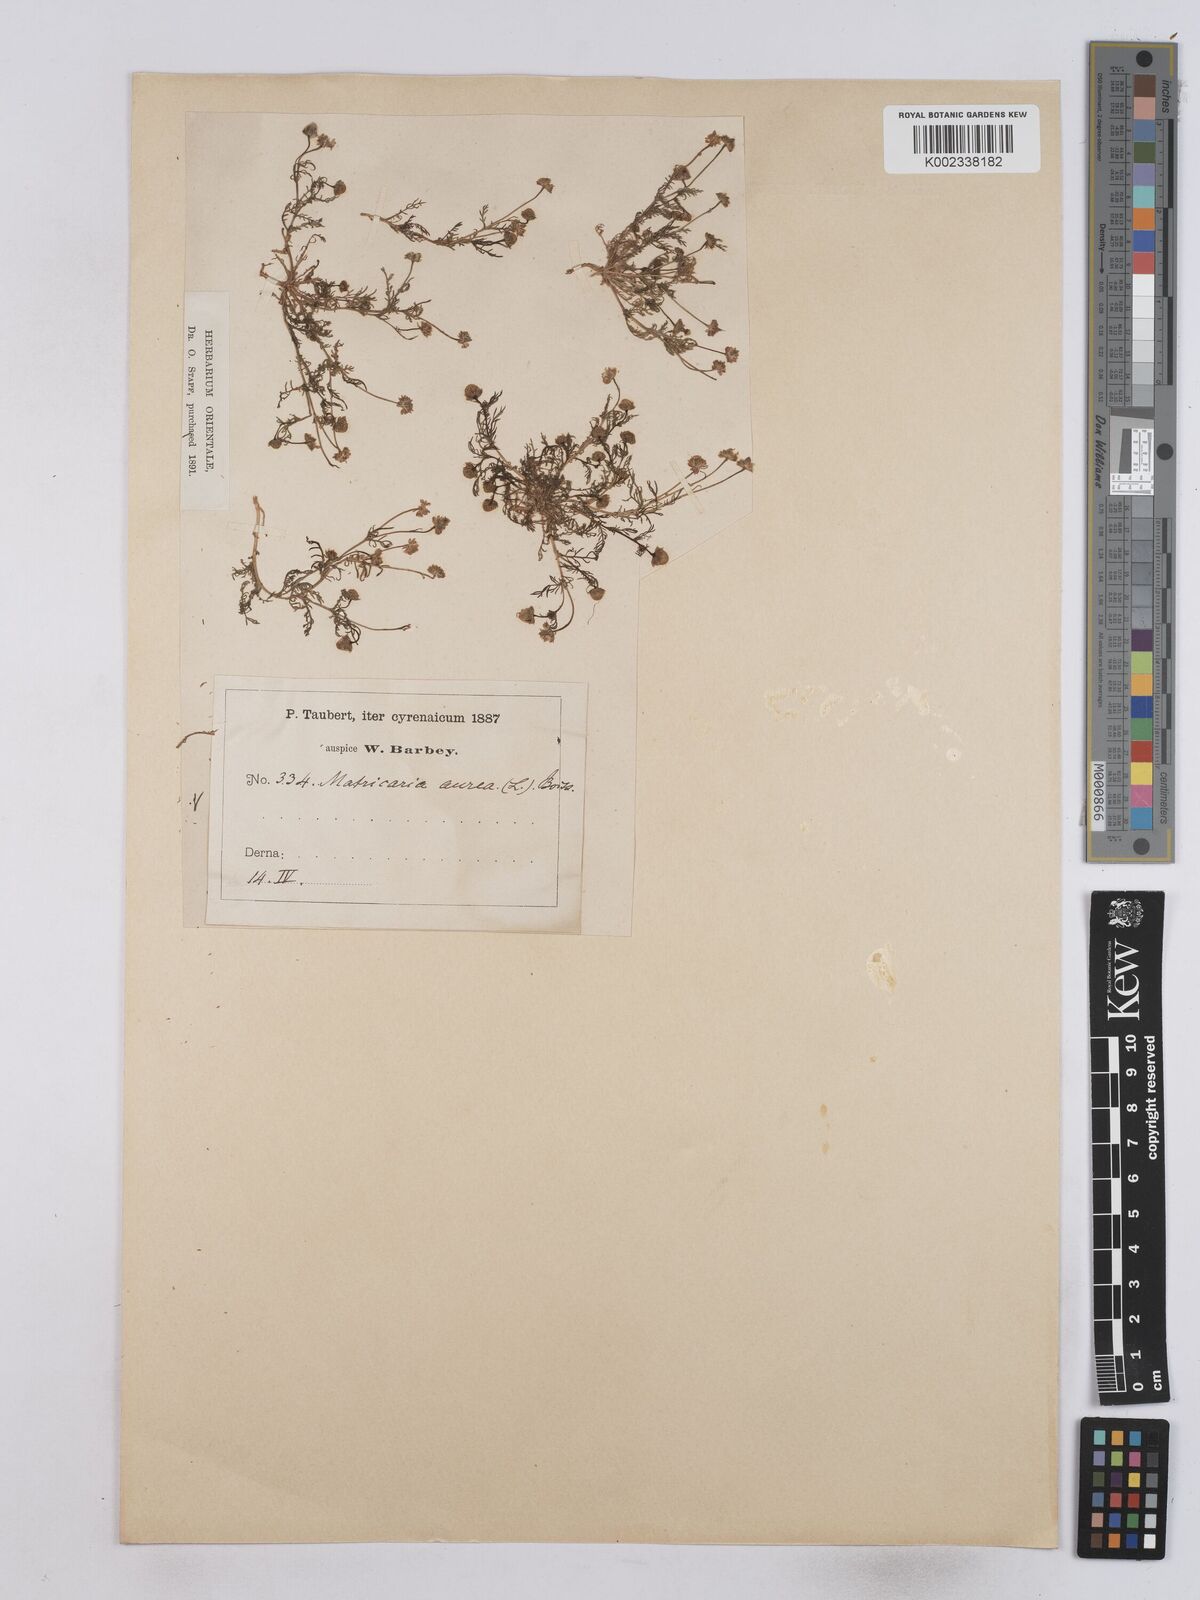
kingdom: Plantae
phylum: Tracheophyta
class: Magnoliopsida
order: Asterales
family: Asteraceae
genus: Matricaria
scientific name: Matricaria aurea
